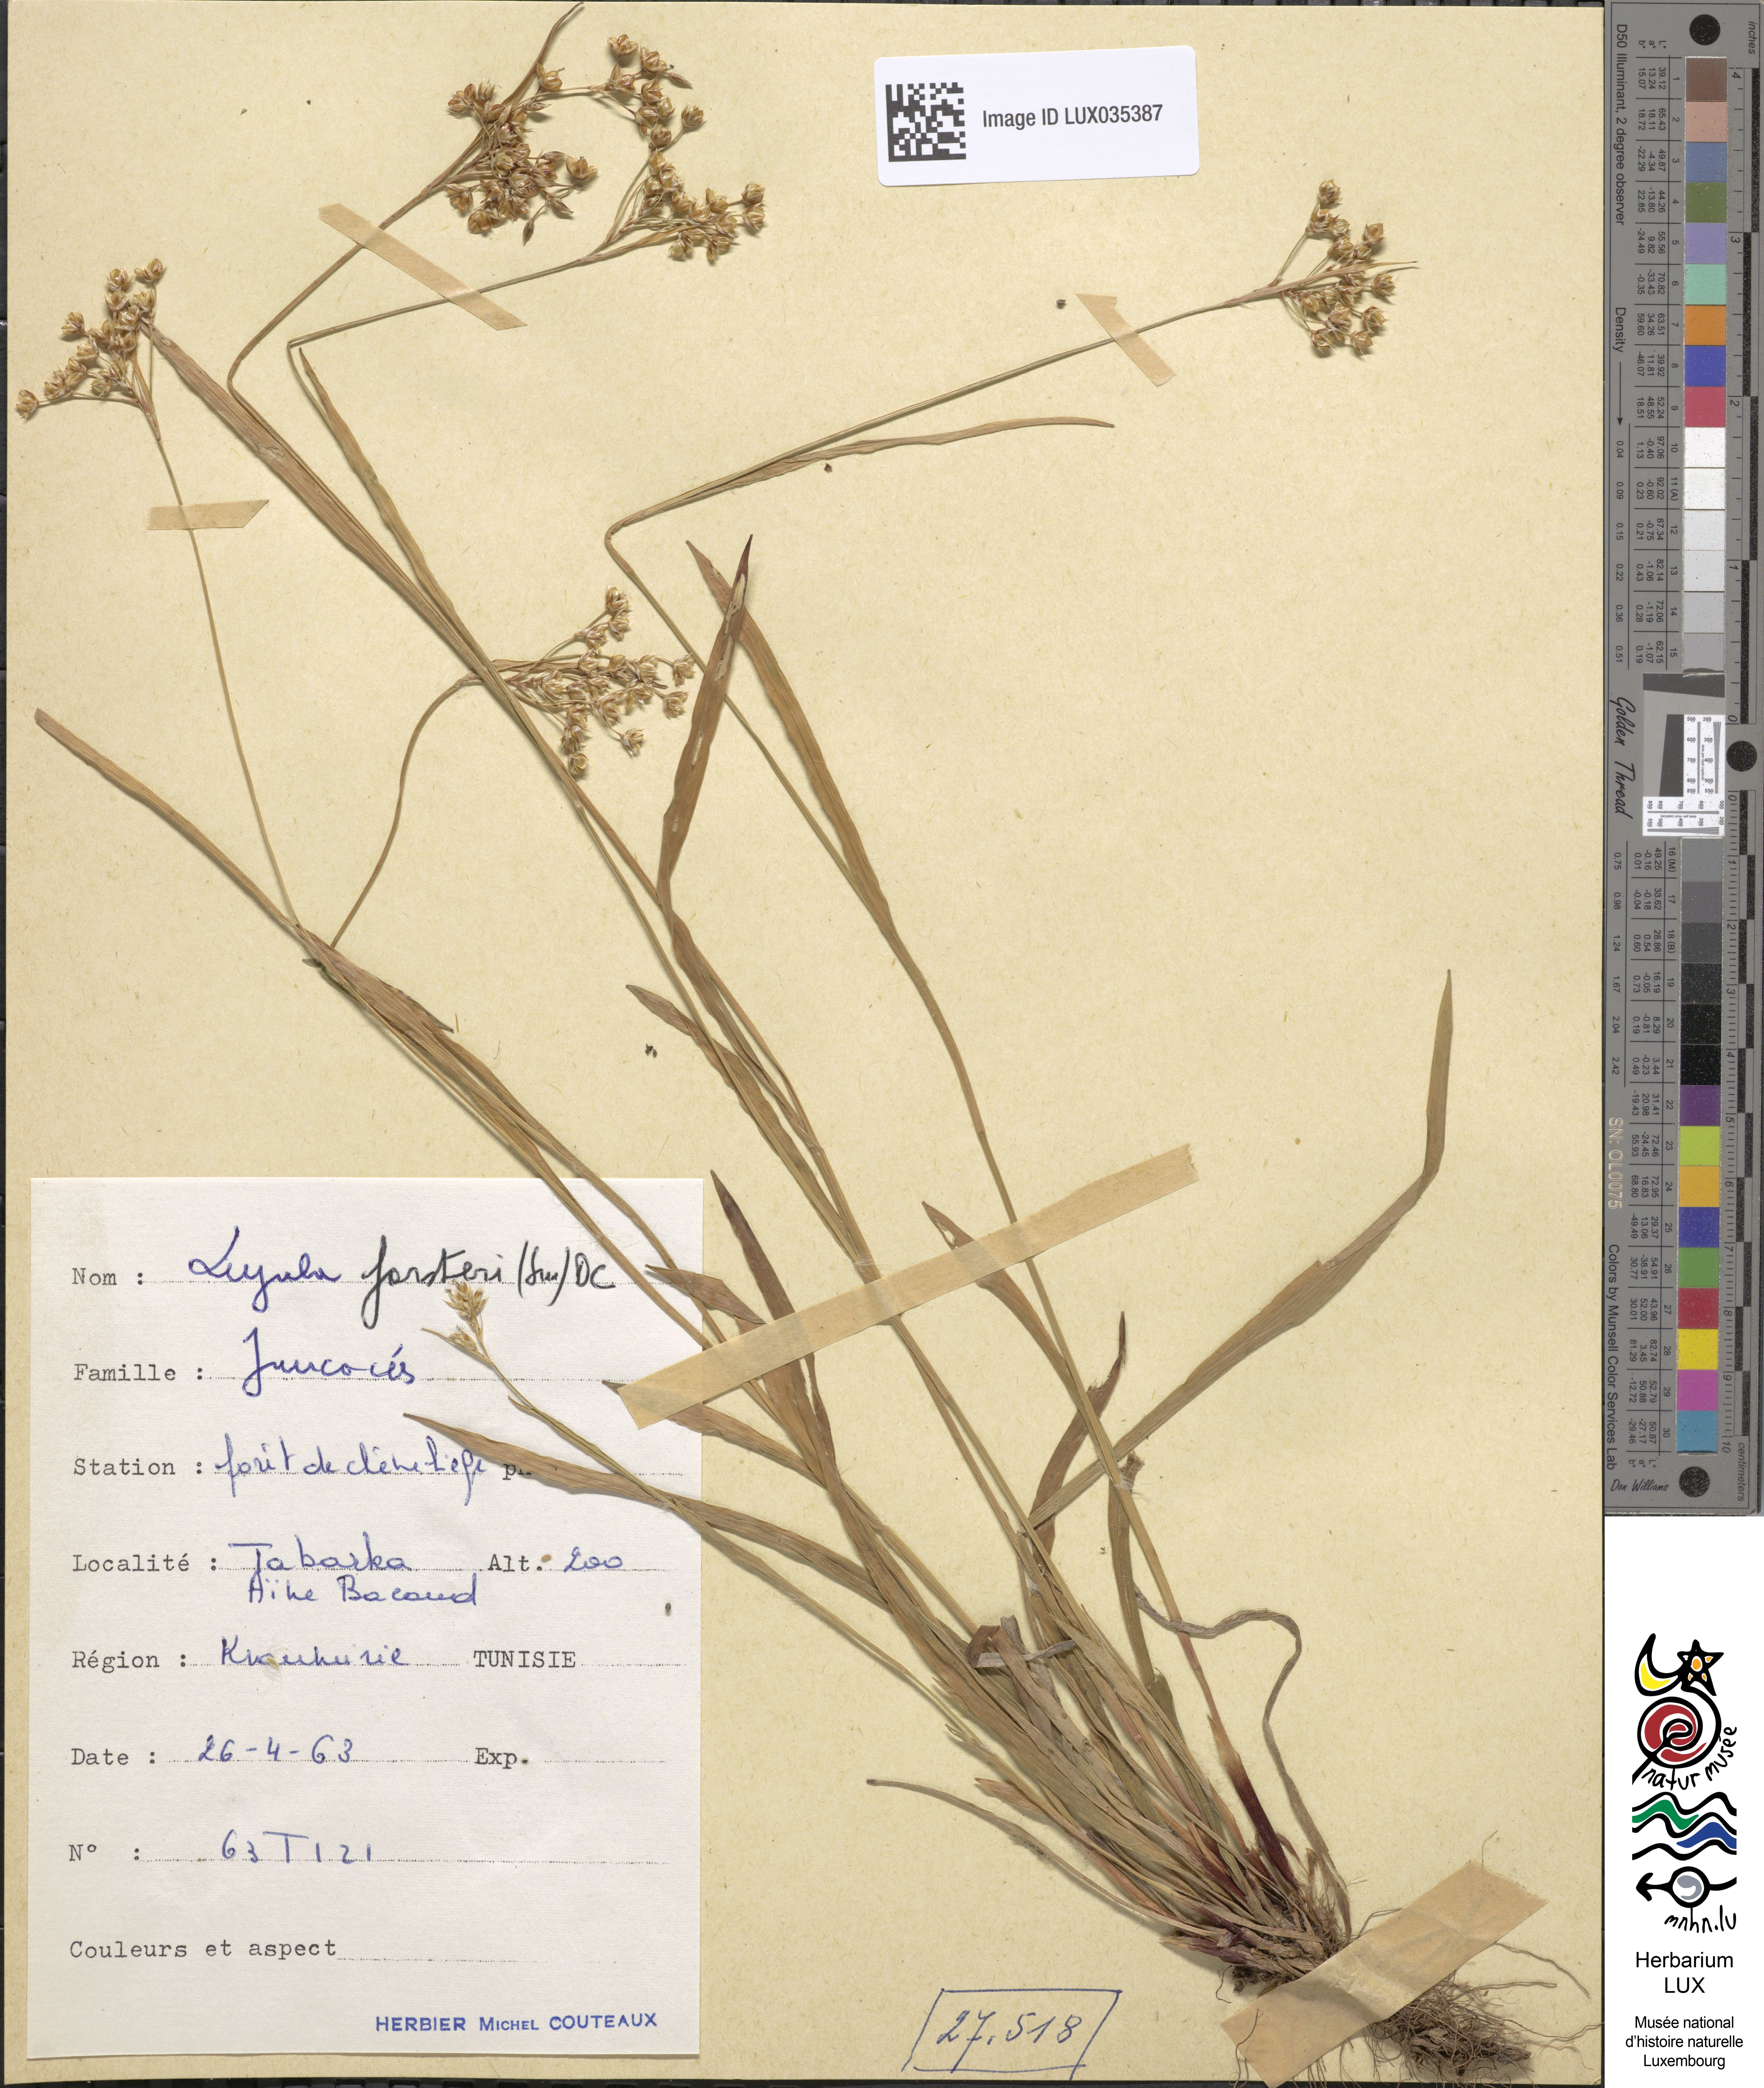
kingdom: Plantae
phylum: Tracheophyta
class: Liliopsida
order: Poales
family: Juncaceae
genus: Luzula
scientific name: Luzula forsteri
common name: Southern wood-rush
